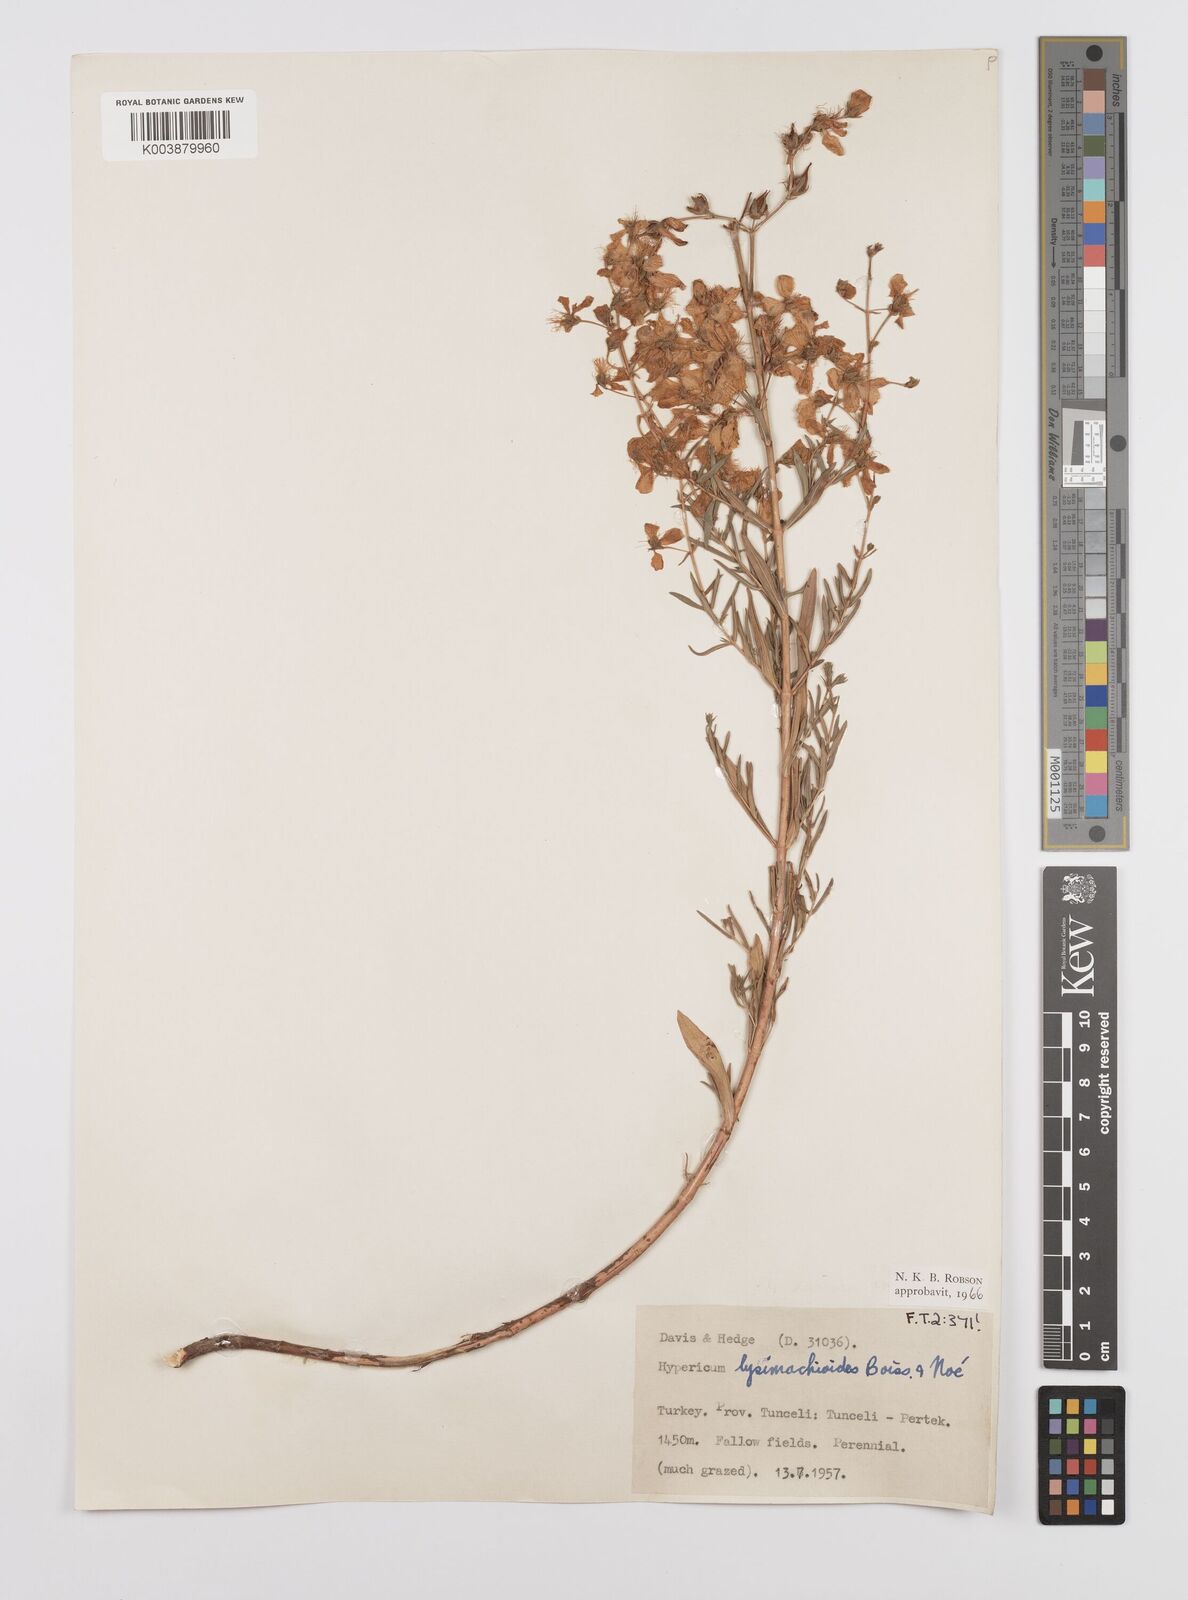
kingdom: Plantae
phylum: Tracheophyta
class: Magnoliopsida
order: Malpighiales
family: Hypericaceae
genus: Hypericum
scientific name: Hypericum lysimachioides
